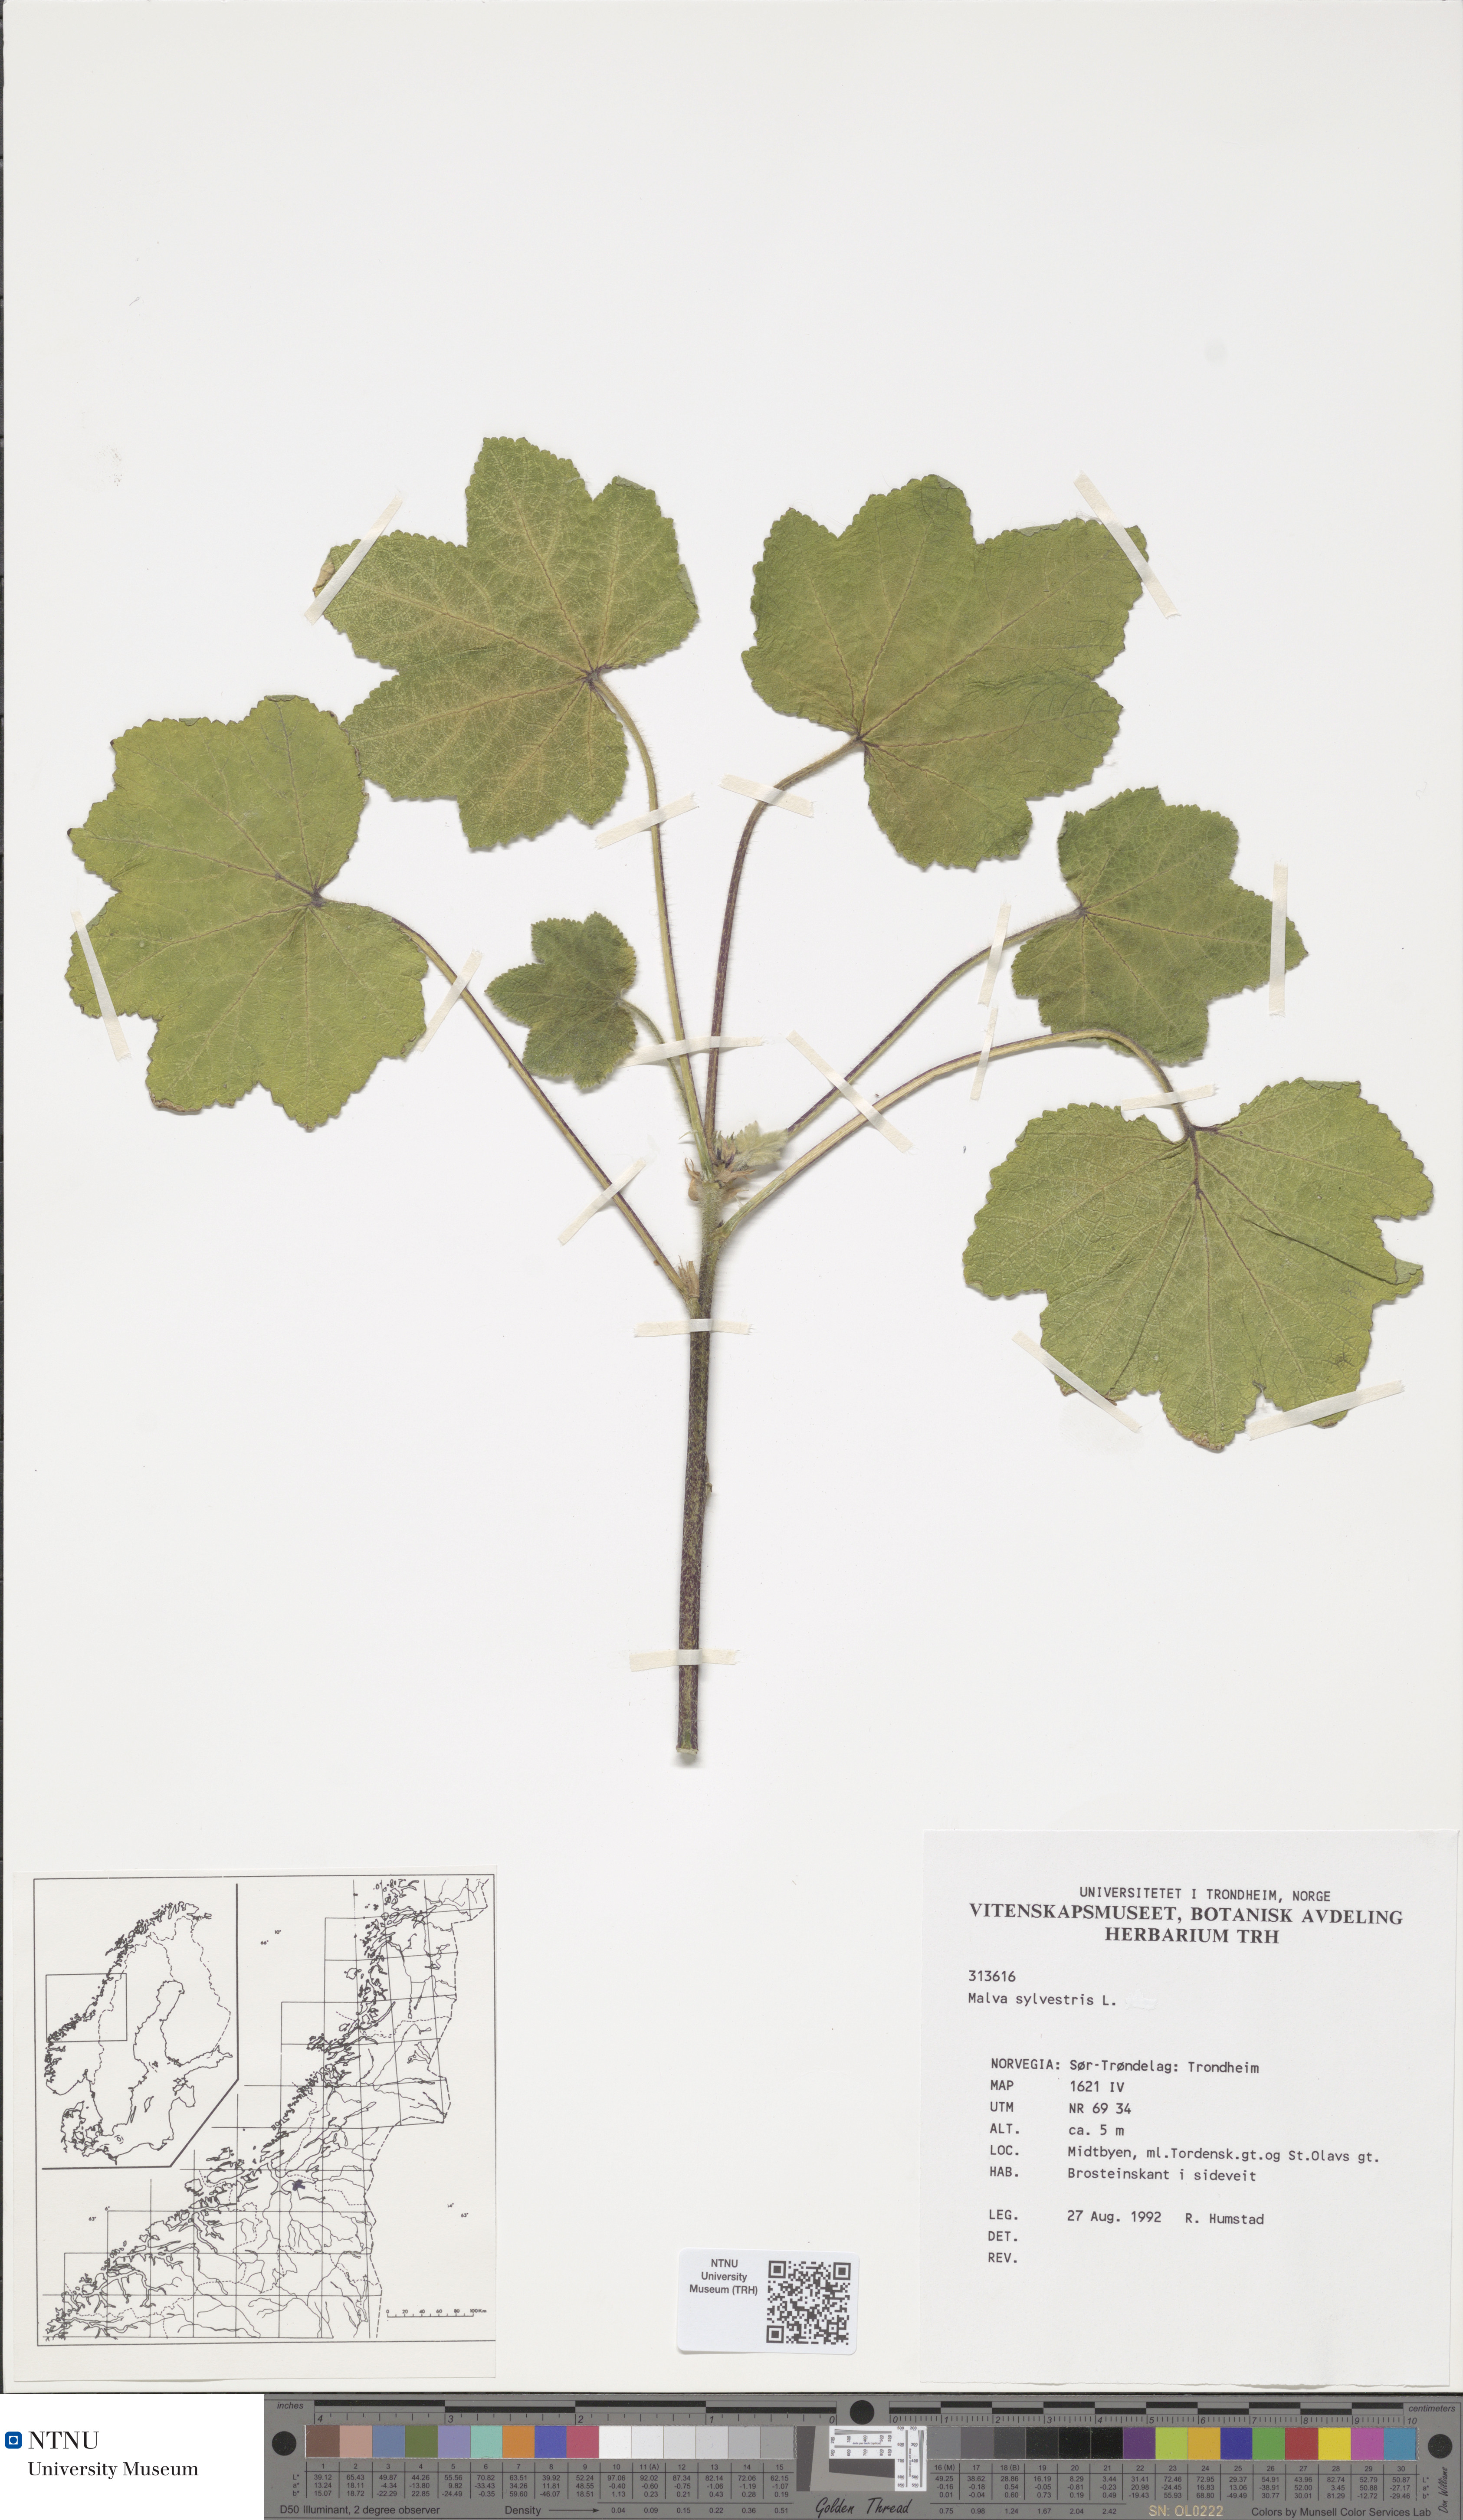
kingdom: Plantae
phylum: Tracheophyta
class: Magnoliopsida
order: Malvales
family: Malvaceae
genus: Malva
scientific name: Malva sylvestris
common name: Common mallow
